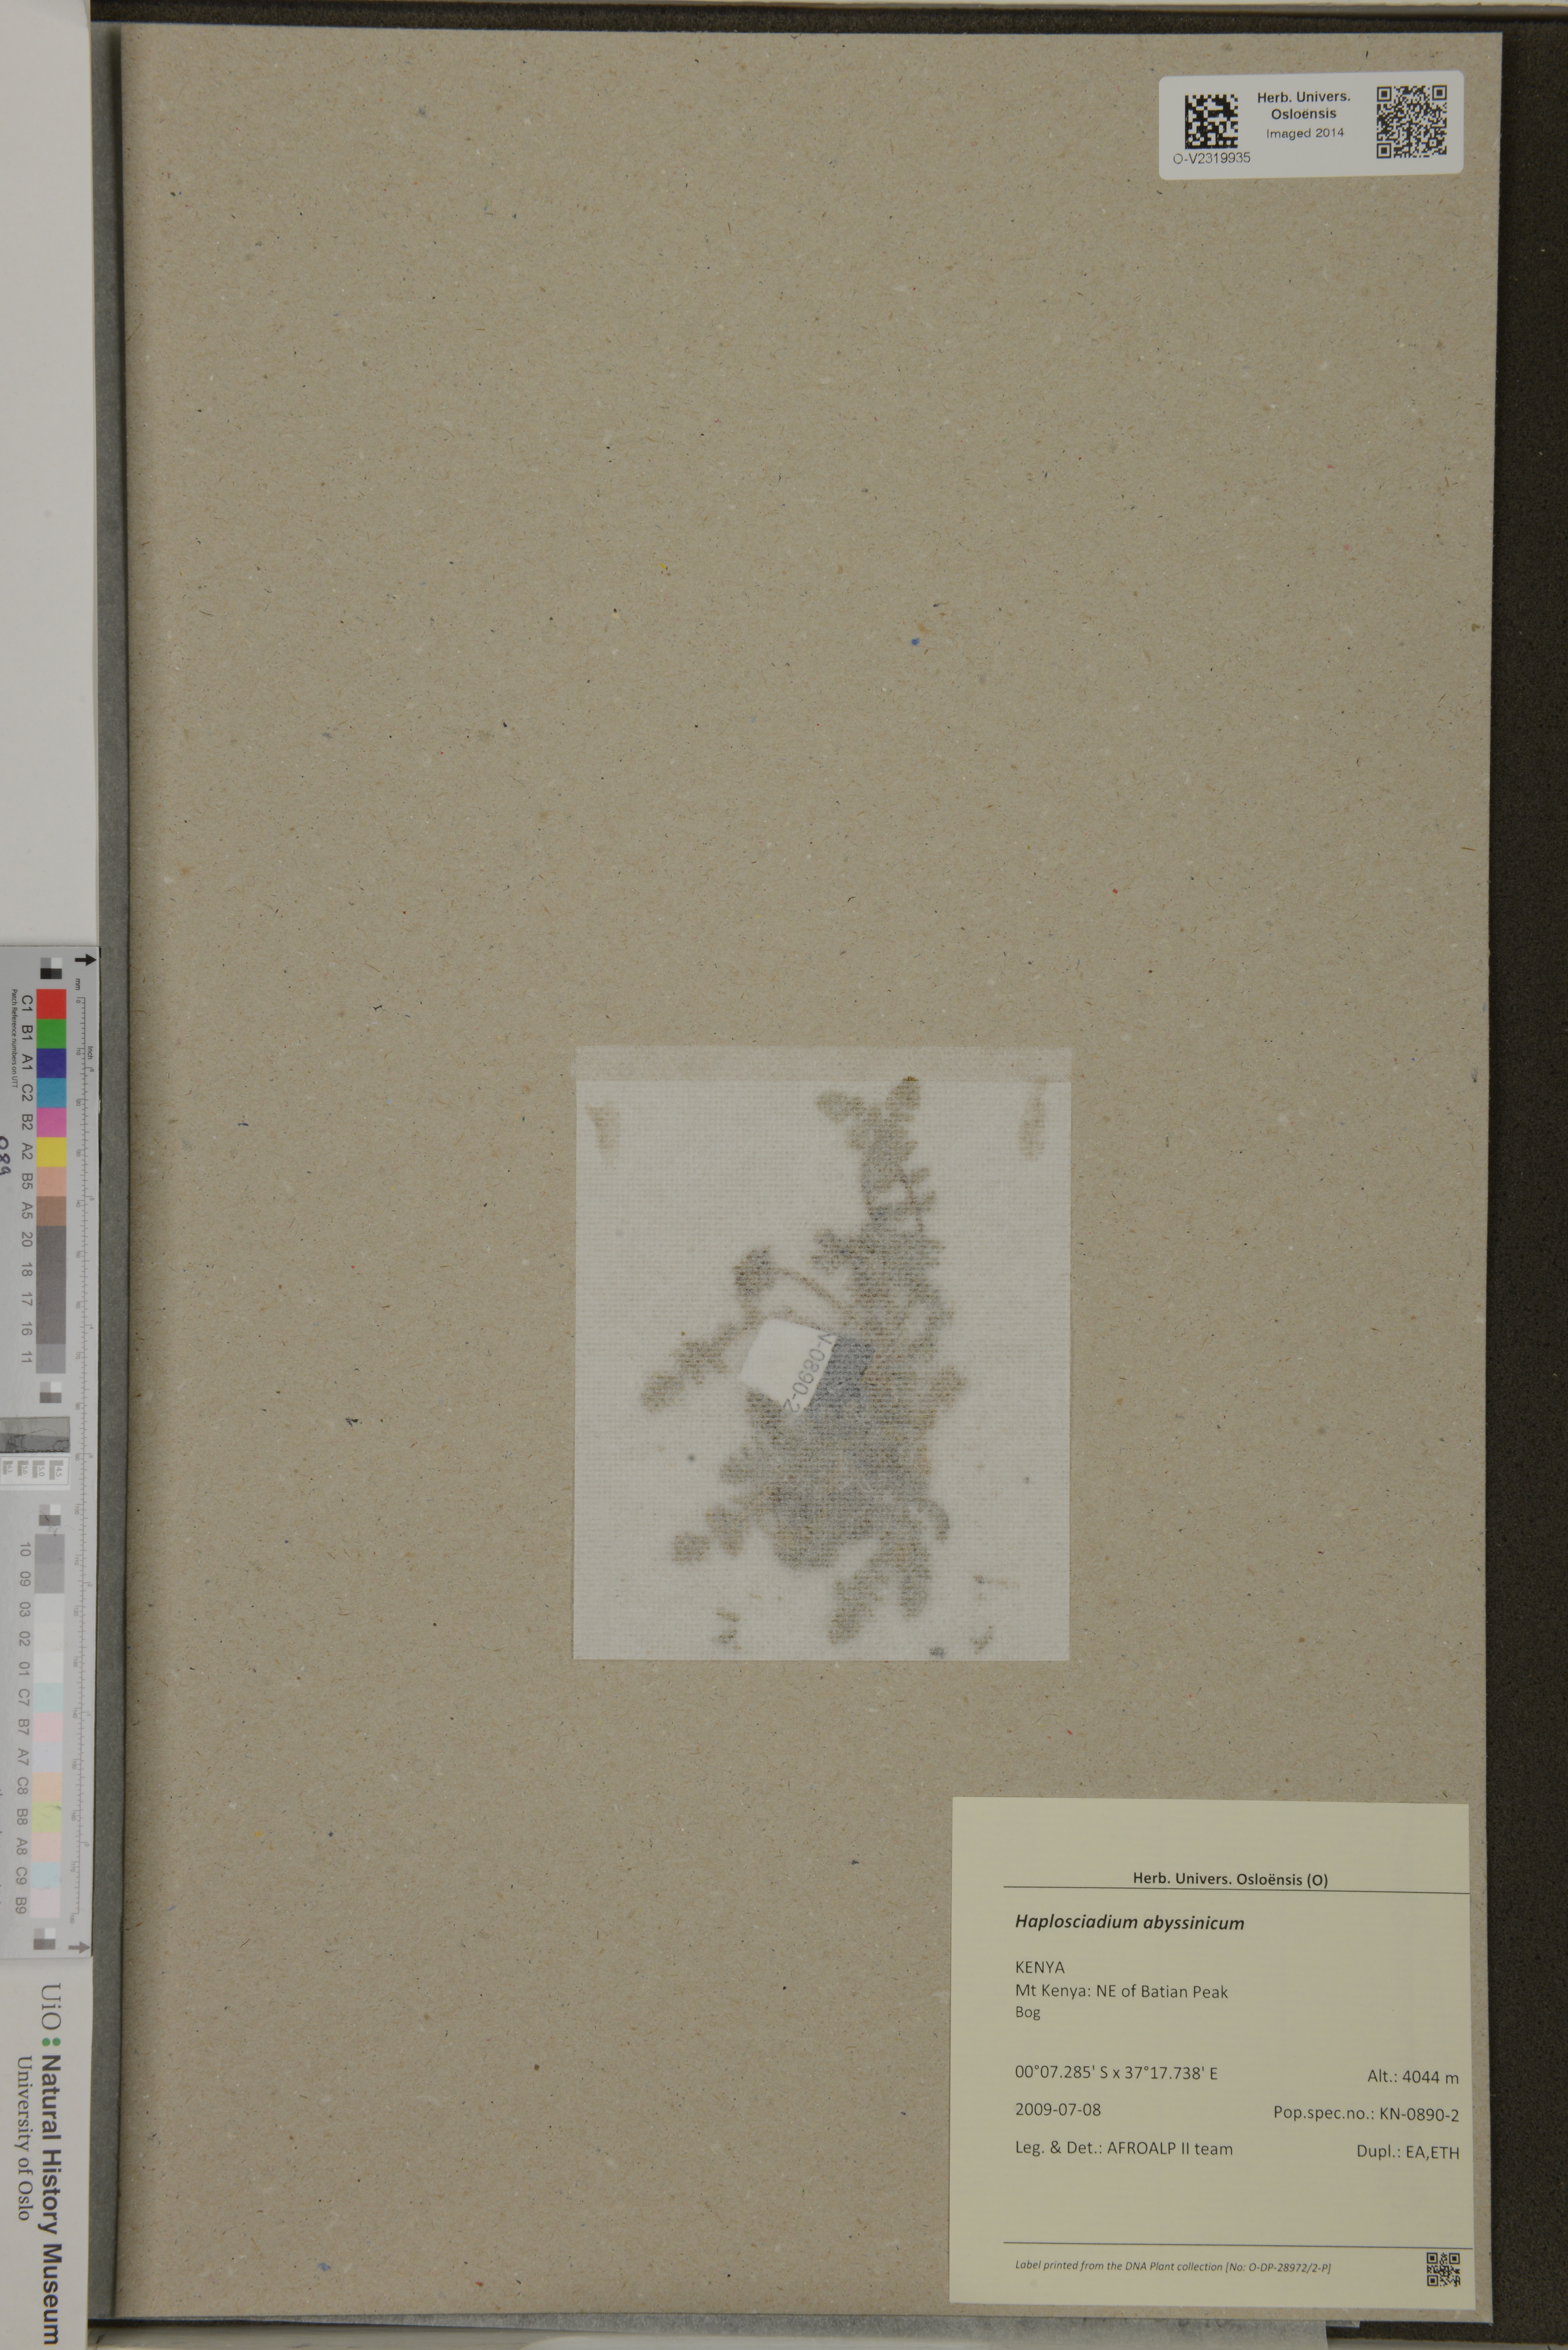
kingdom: Plantae
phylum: Tracheophyta
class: Magnoliopsida
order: Apiales
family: Apiaceae
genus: Haplosciadium
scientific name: Haplosciadium abyssinicum
